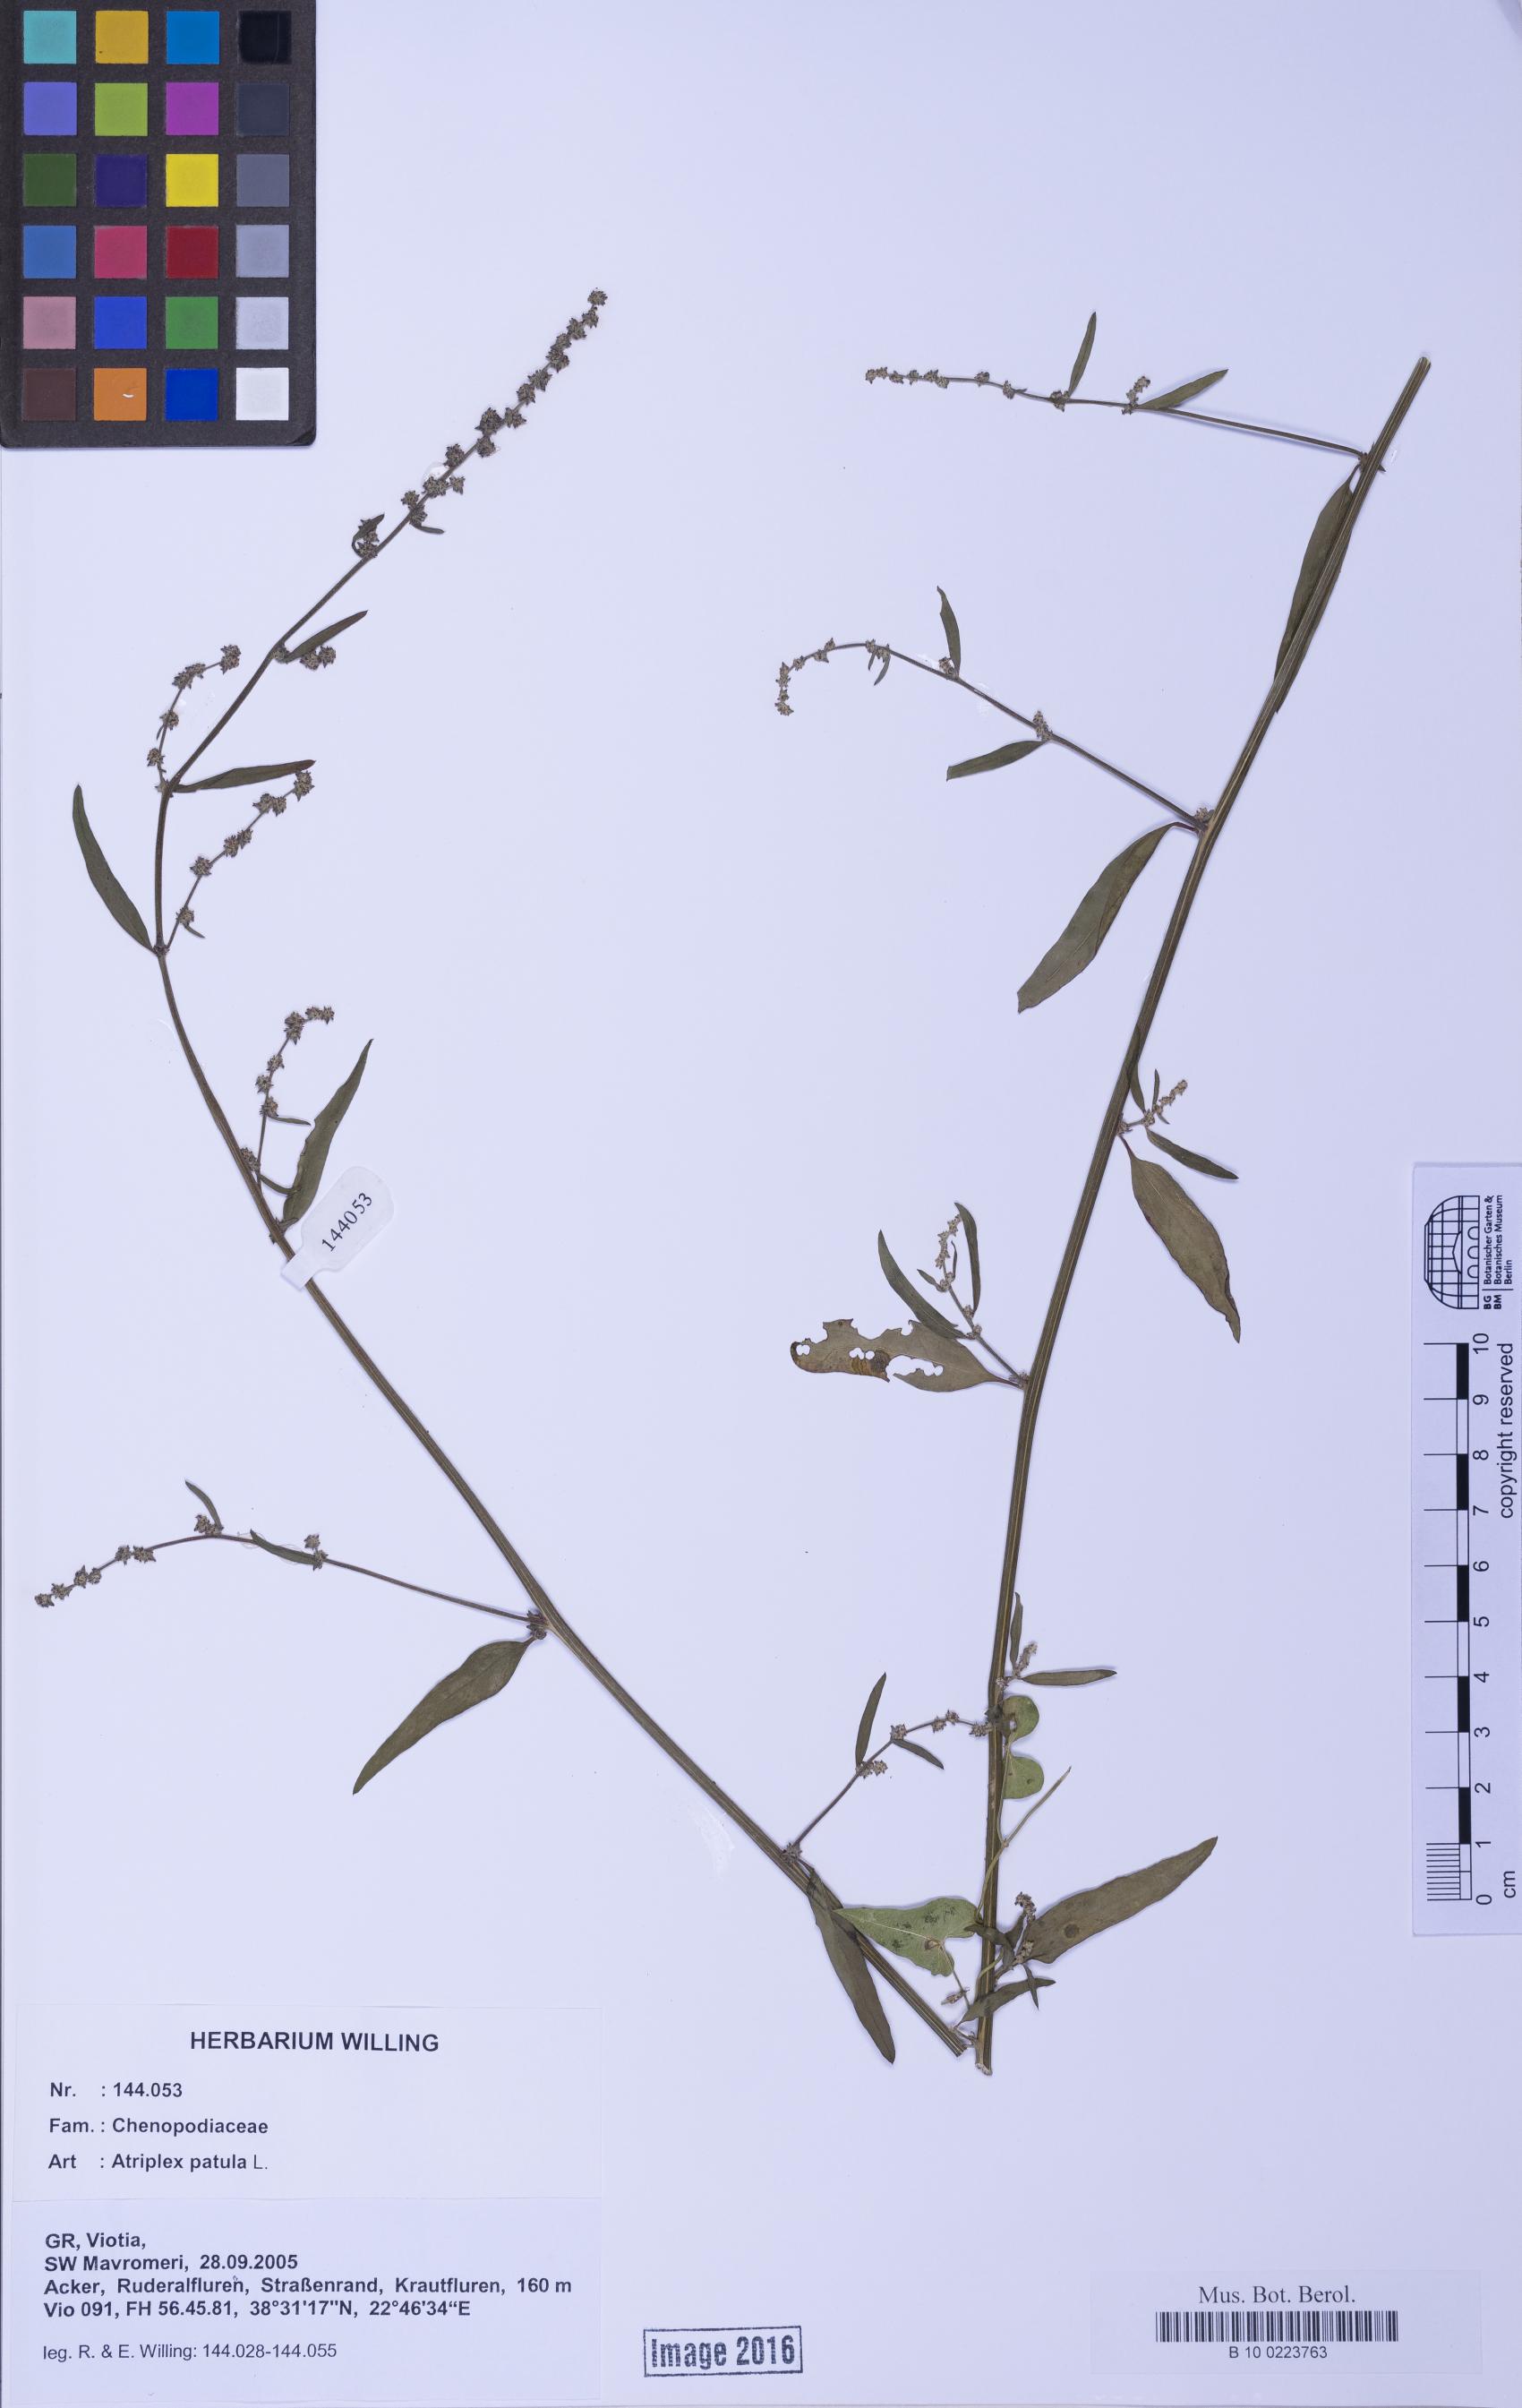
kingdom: Plantae
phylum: Tracheophyta
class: Magnoliopsida
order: Caryophyllales
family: Amaranthaceae
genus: Atriplex
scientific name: Atriplex patula
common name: Common orache
